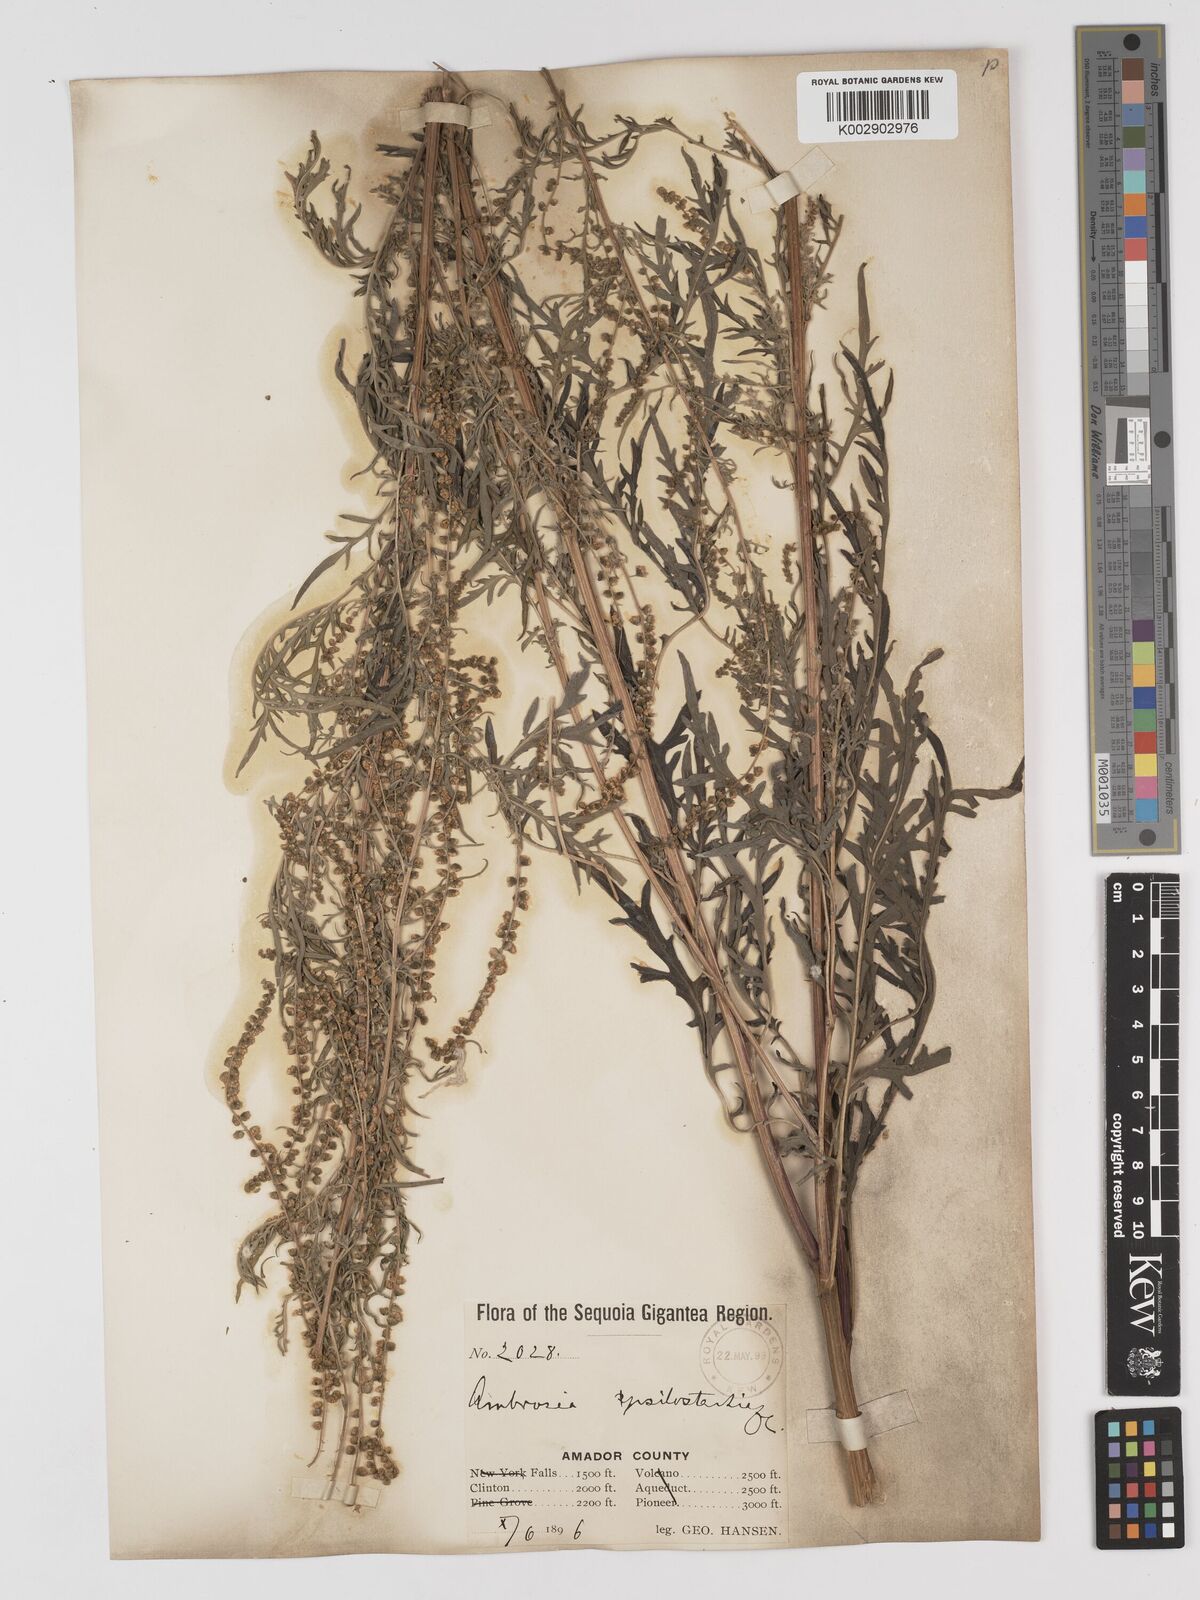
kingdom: Plantae
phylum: Tracheophyta
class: Magnoliopsida
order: Asterales
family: Asteraceae
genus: Ambrosia
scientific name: Ambrosia psilostachya
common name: Perennial ragweed
